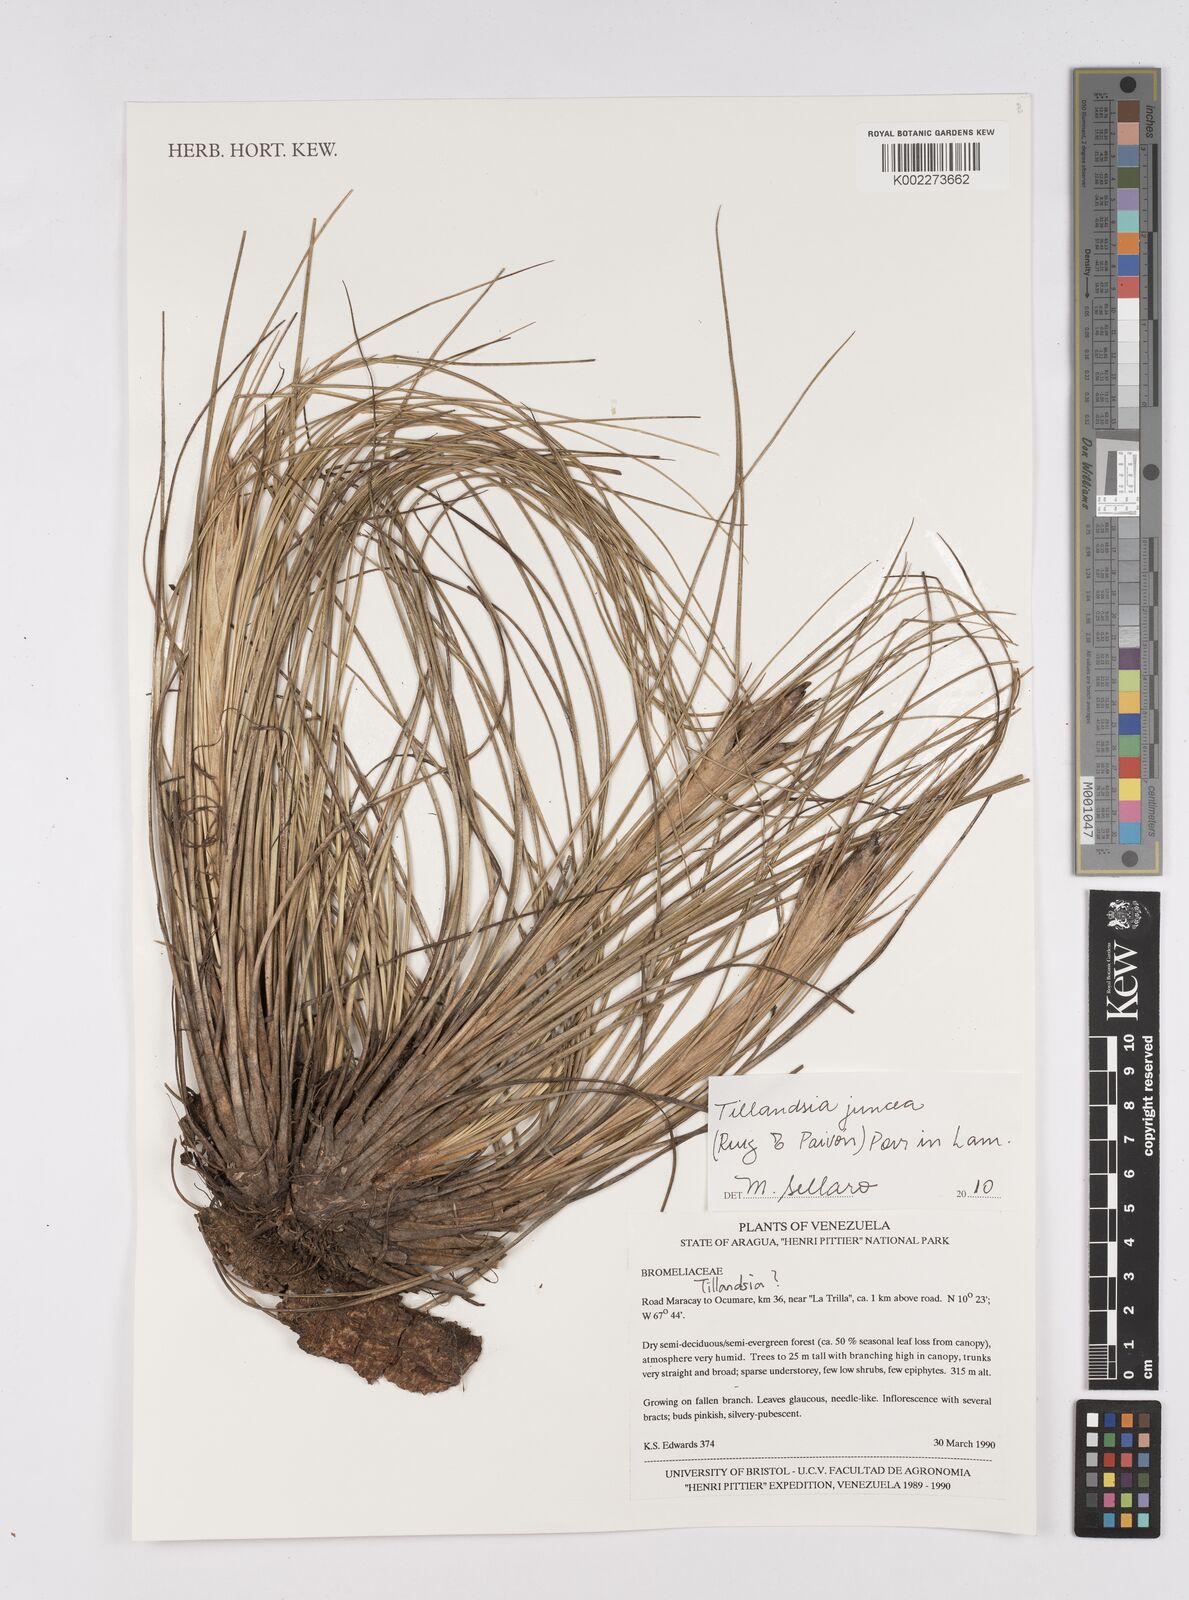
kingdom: Plantae
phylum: Tracheophyta
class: Liliopsida
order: Poales
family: Bromeliaceae
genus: Tillandsia
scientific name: Tillandsia juncea
